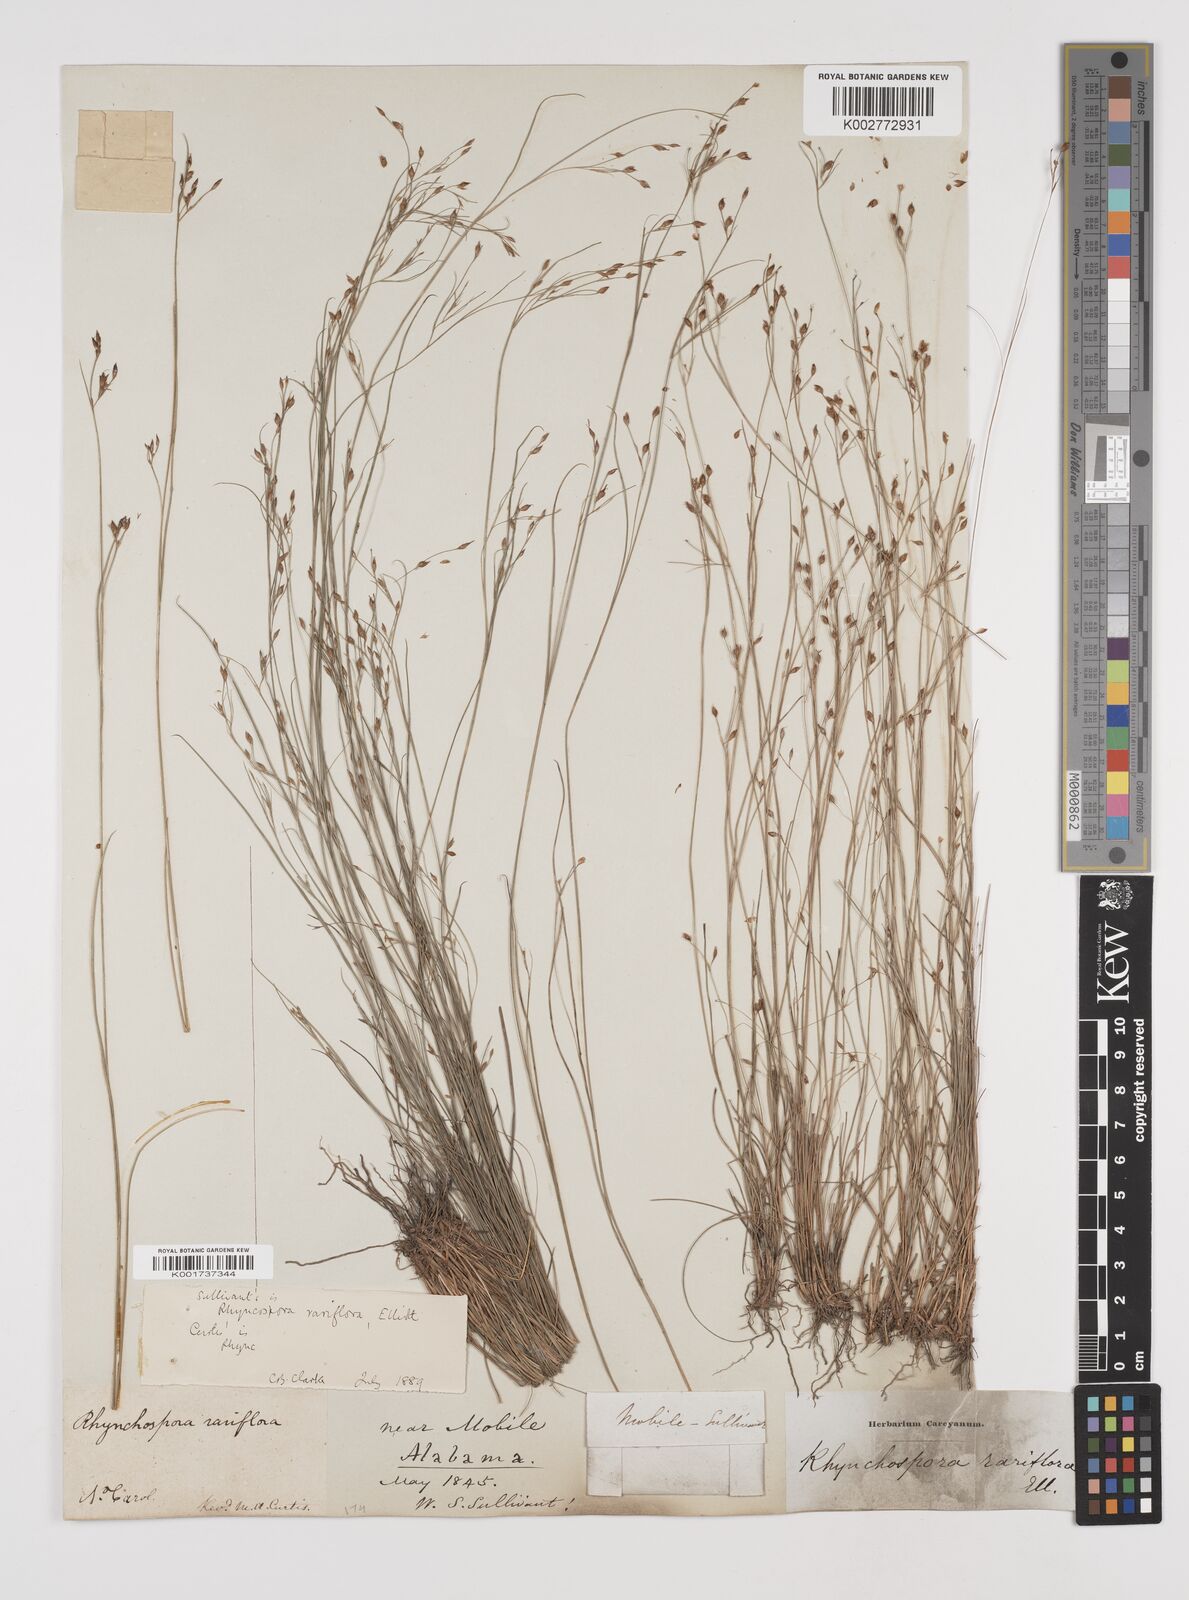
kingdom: Plantae
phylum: Tracheophyta
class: Liliopsida
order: Poales
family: Cyperaceae
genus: Rhynchospora
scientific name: Rhynchospora rariflora
